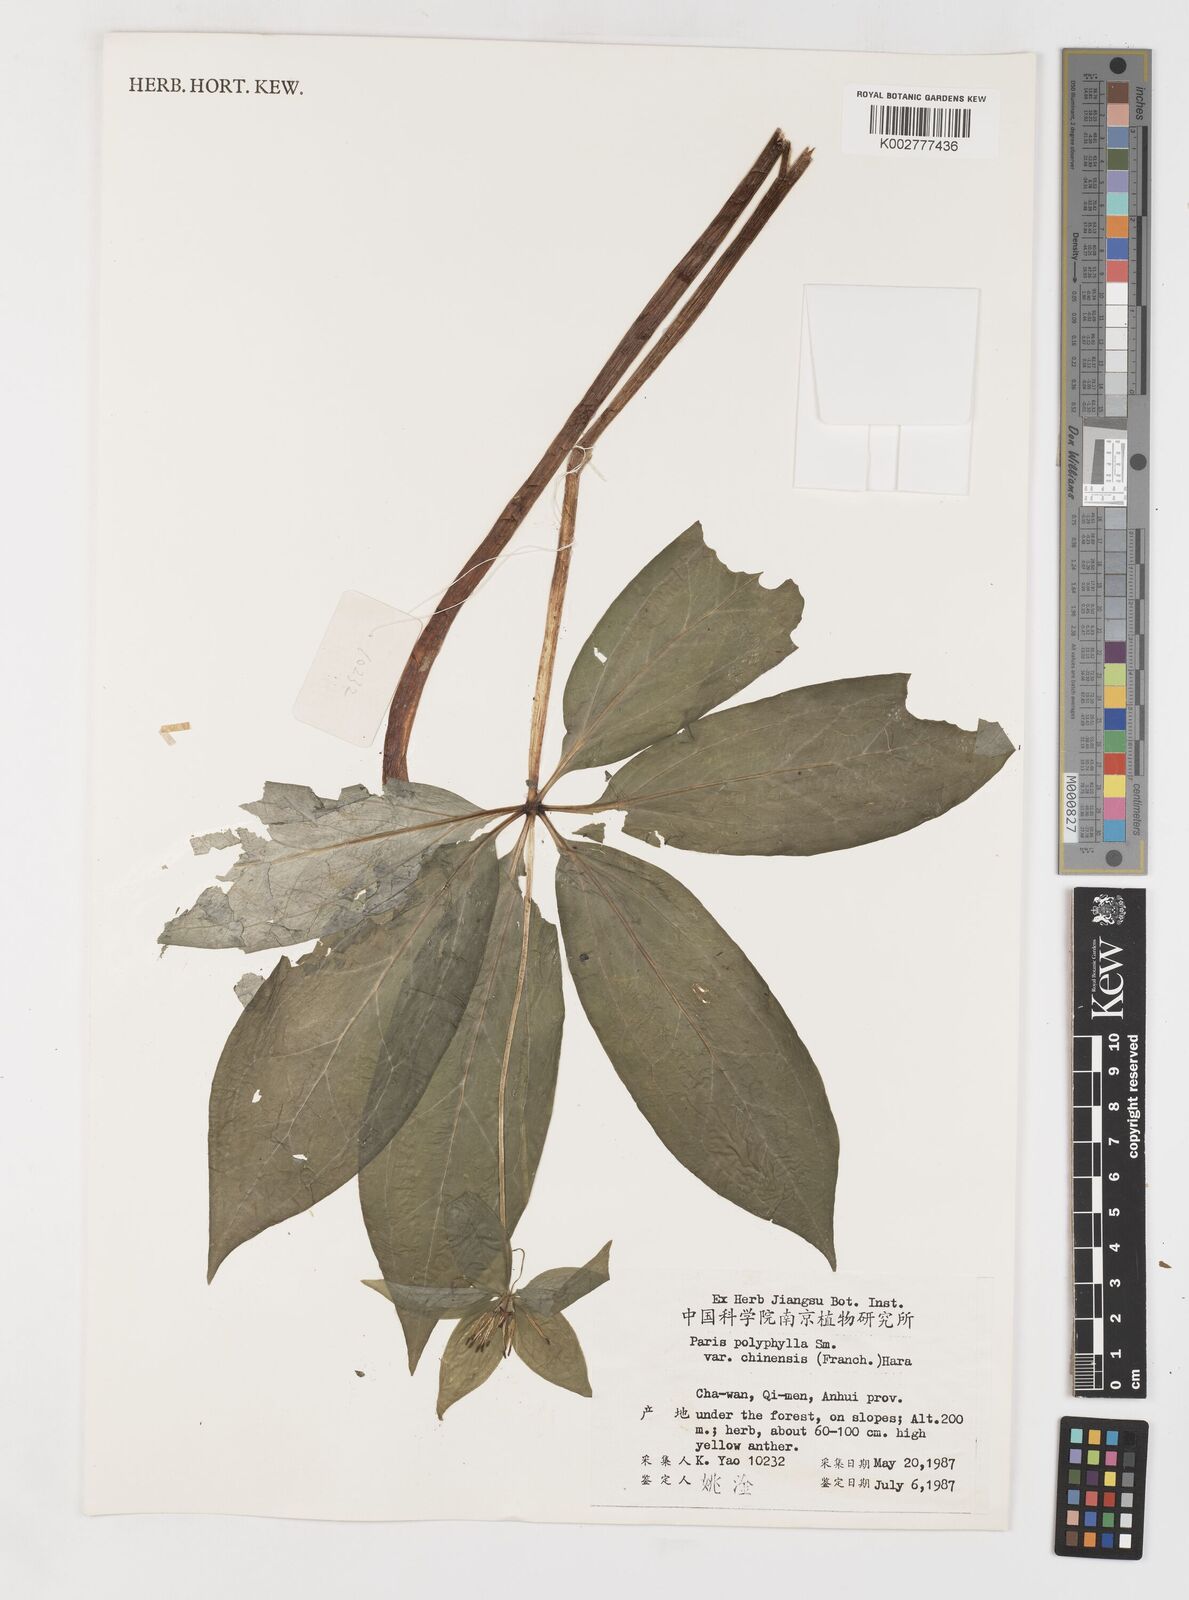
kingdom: Plantae
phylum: Tracheophyta
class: Liliopsida
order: Liliales
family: Melanthiaceae
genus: Paris
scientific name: Paris chinensis
